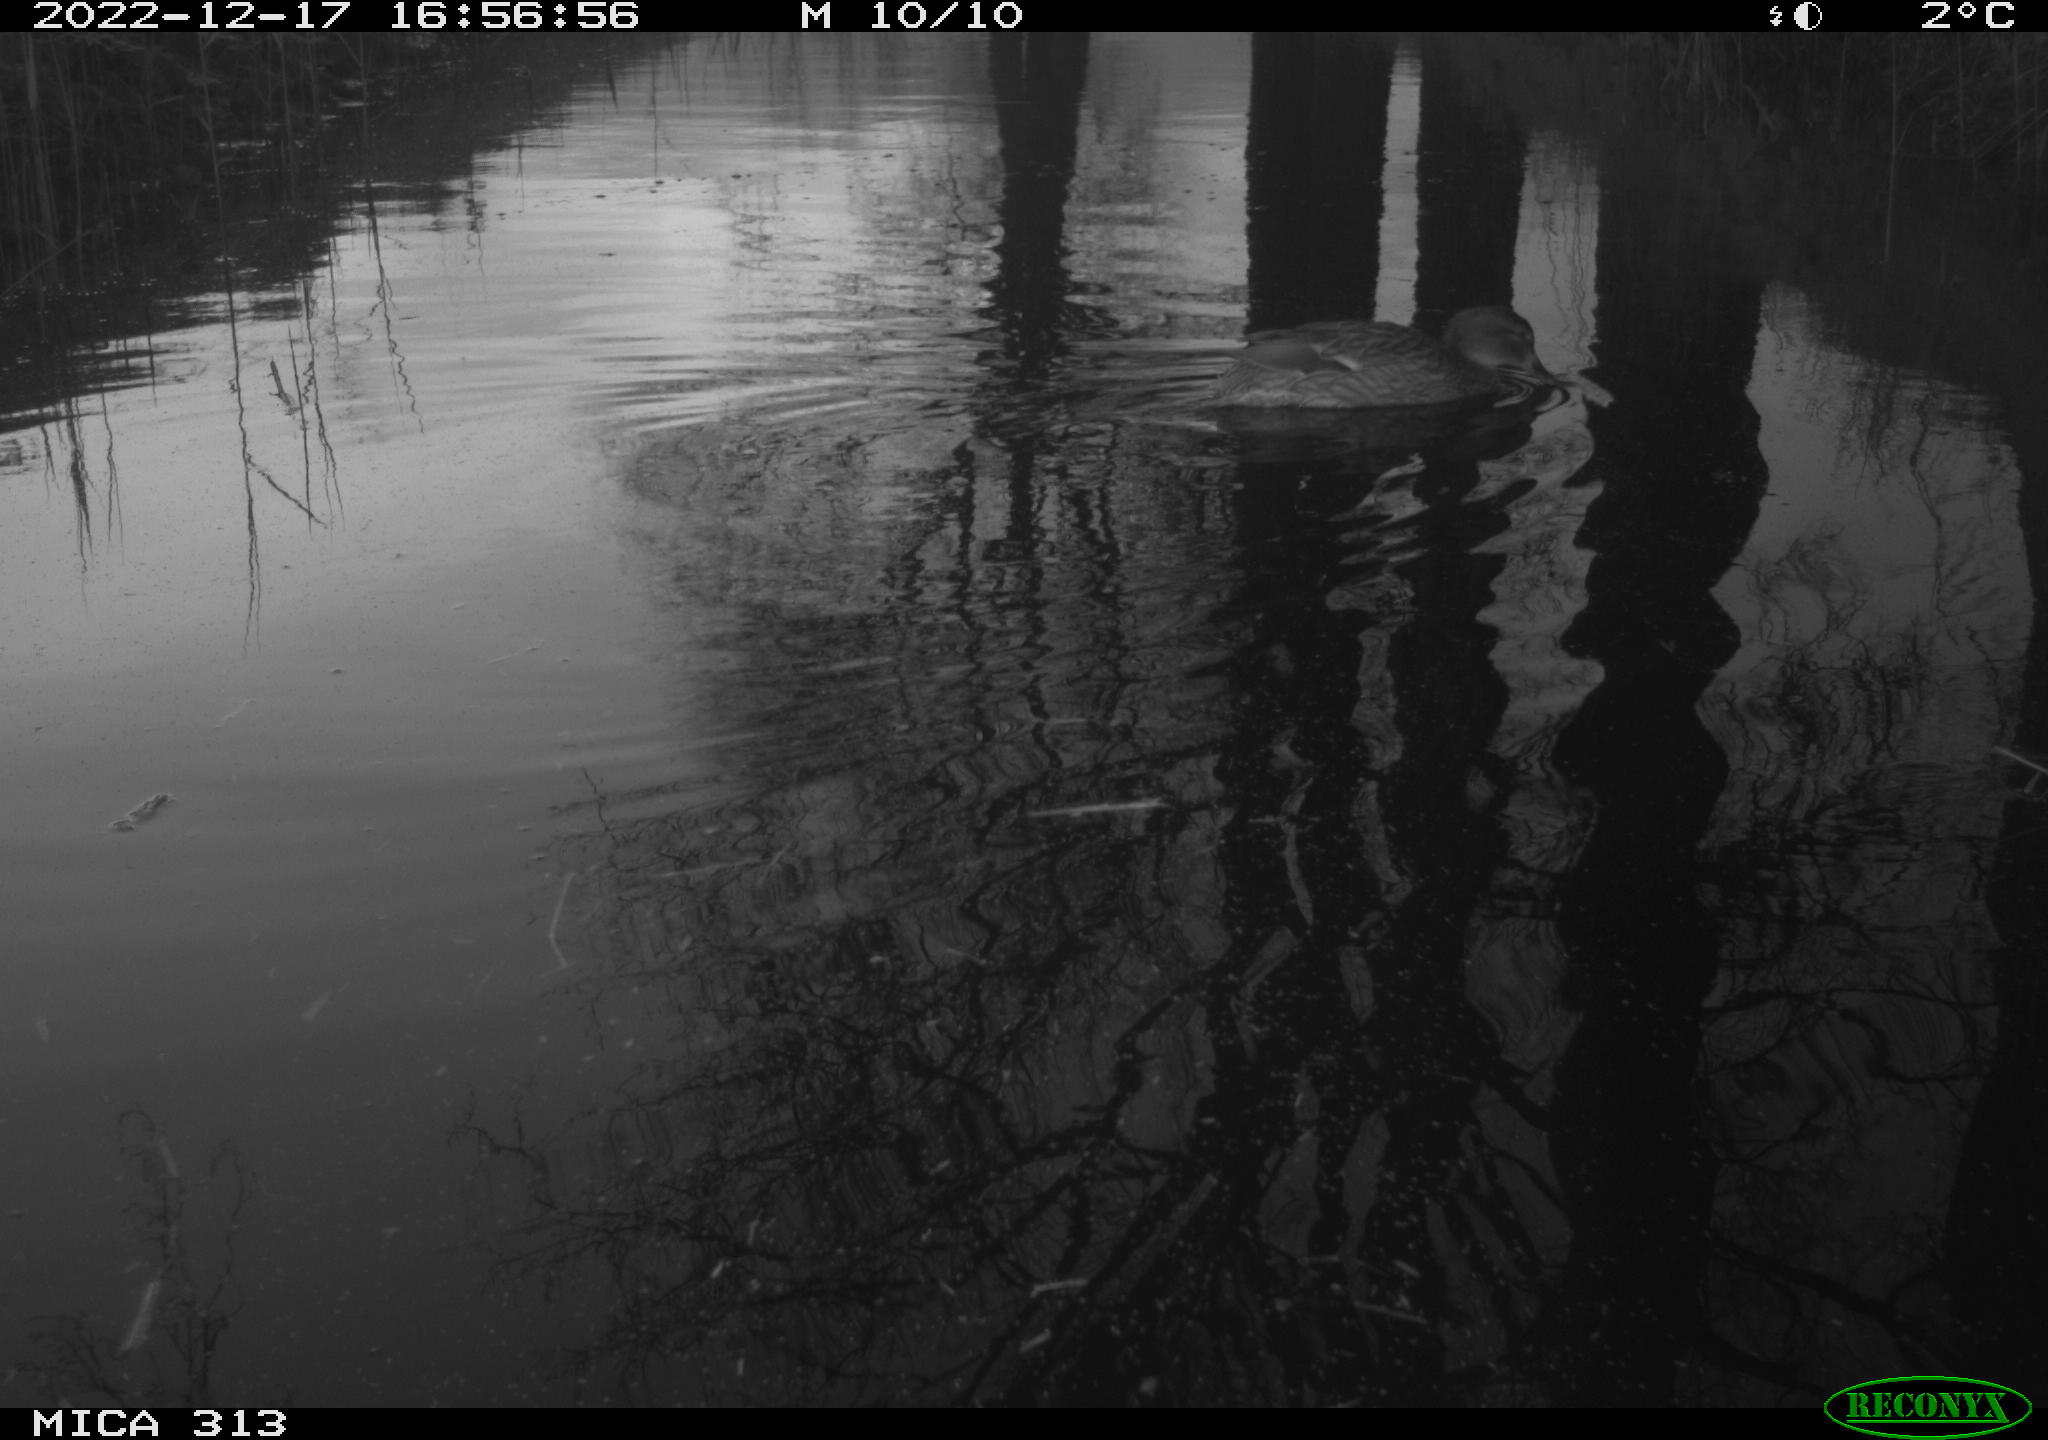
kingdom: Animalia
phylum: Chordata
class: Aves
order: Anseriformes
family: Anatidae
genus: Anas
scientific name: Anas
